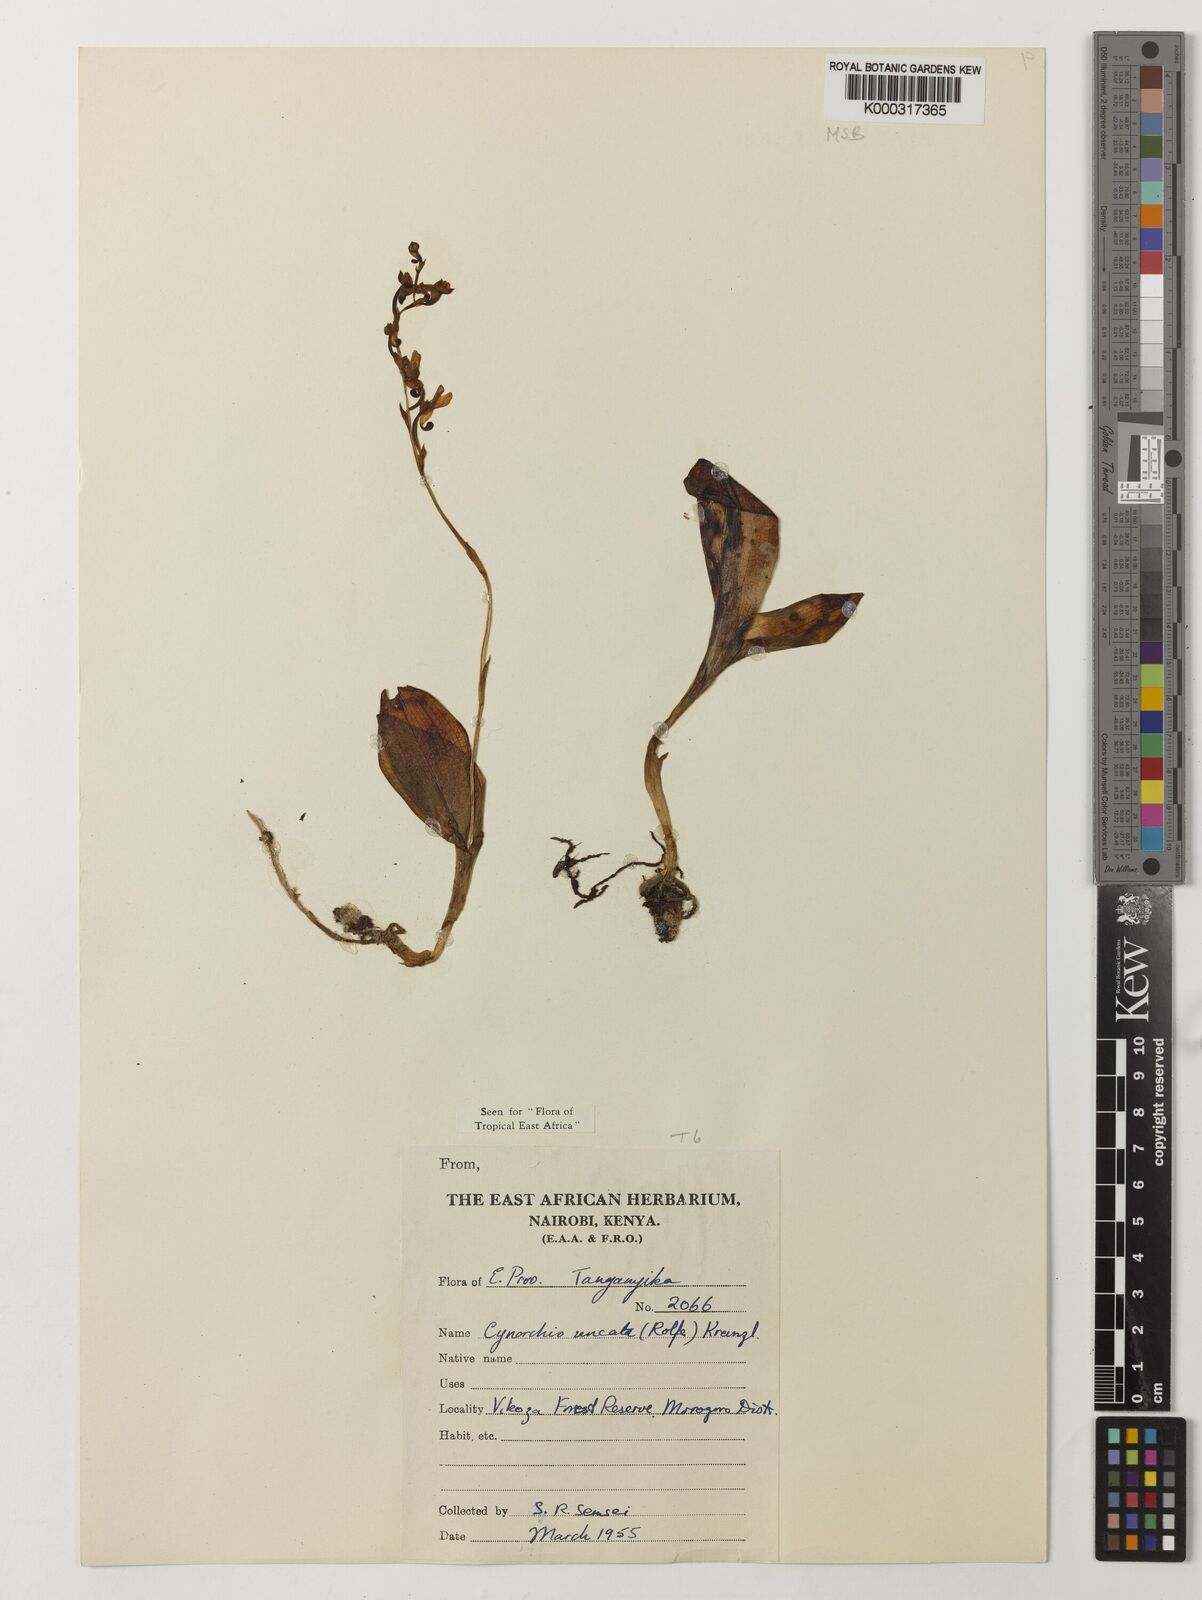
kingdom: Plantae
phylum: Tracheophyta
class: Liliopsida
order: Asparagales
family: Orchidaceae
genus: Cynorkis
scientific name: Cynorkis uncata
